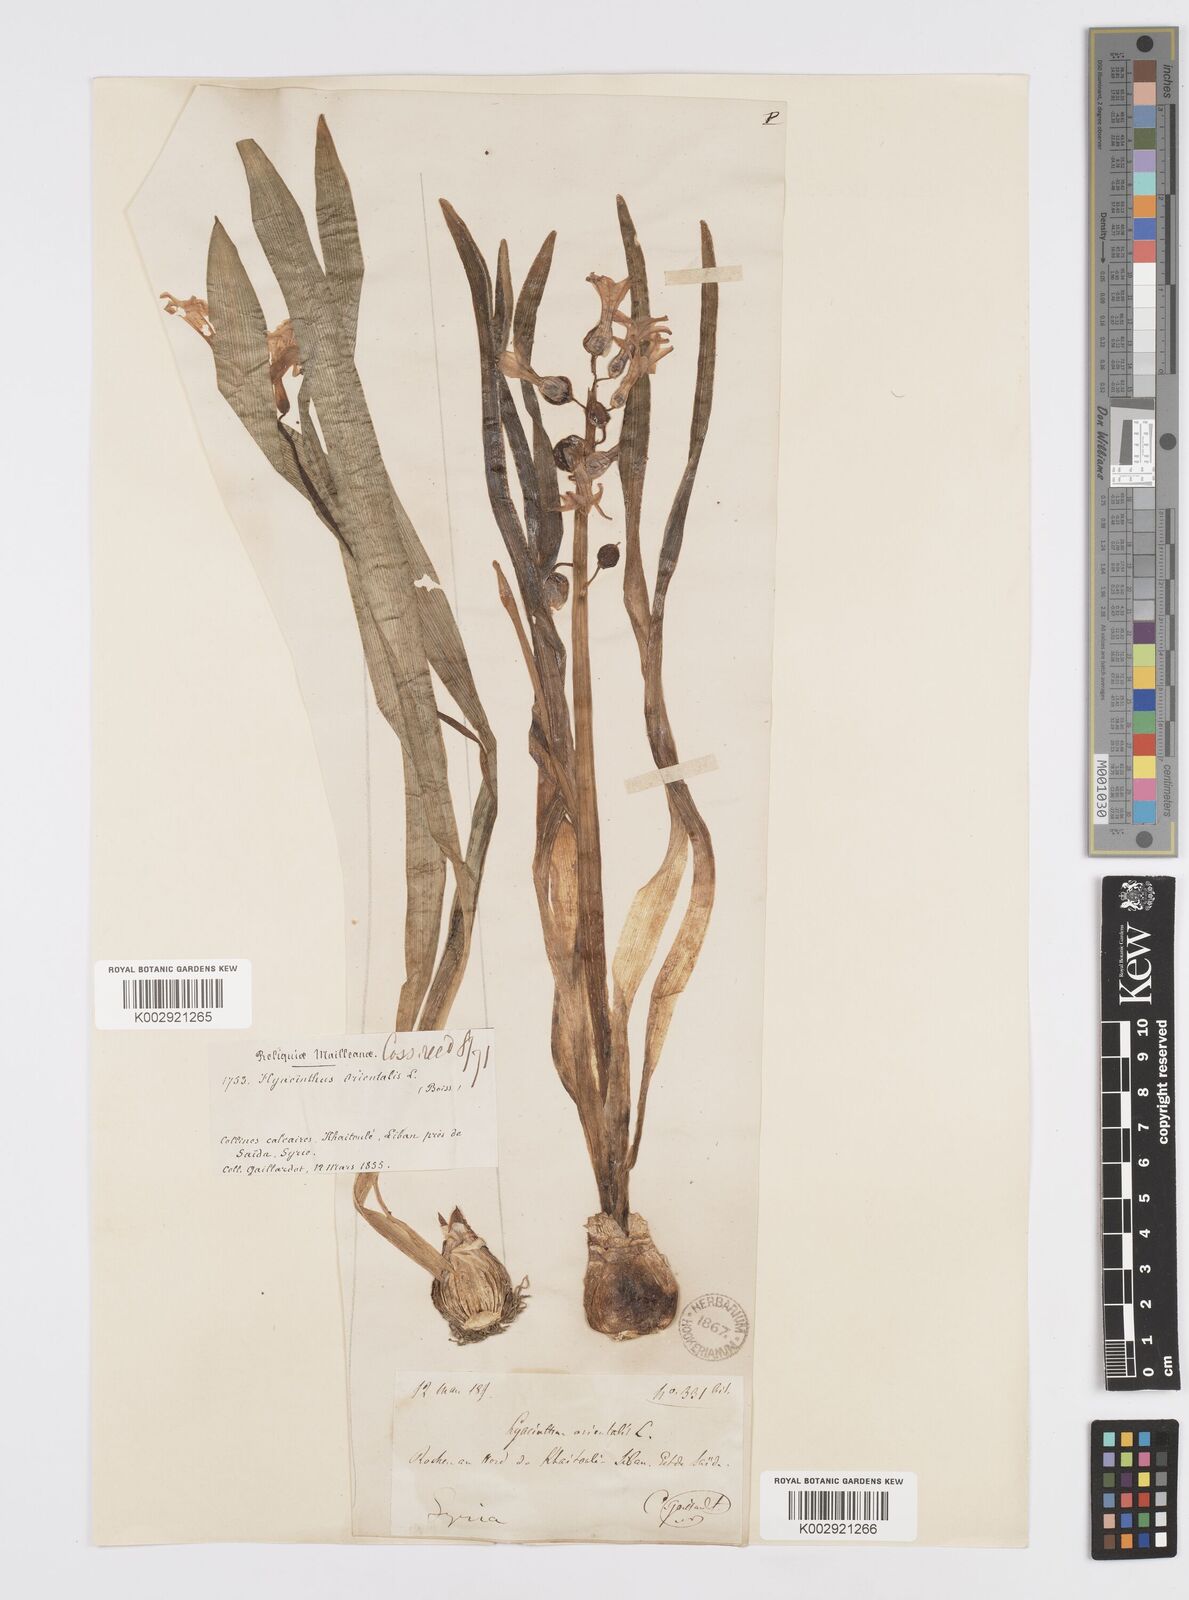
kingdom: Plantae
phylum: Tracheophyta
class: Liliopsida
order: Asparagales
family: Asparagaceae
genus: Hyacinthus
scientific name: Hyacinthus orientalis
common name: Hyacinth
